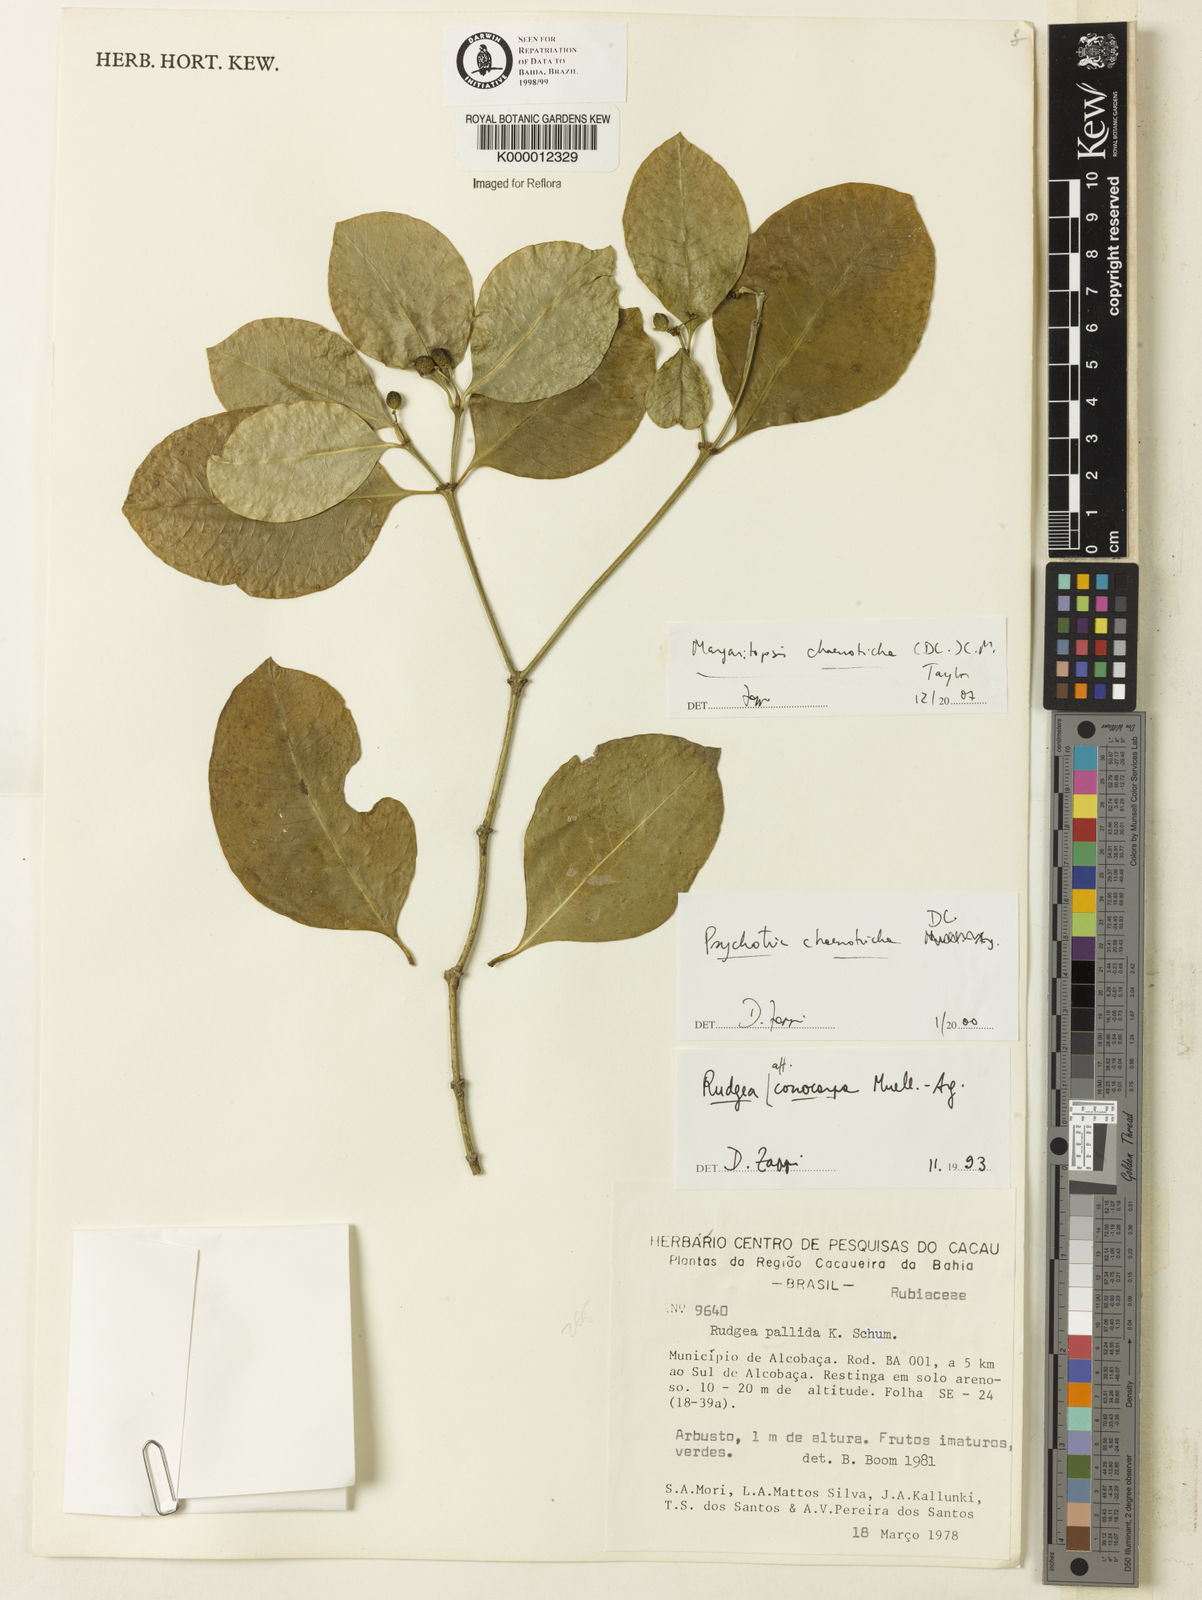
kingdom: Plantae
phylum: Tracheophyta
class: Magnoliopsida
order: Gentianales
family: Rubiaceae
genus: Eumachia
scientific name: Eumachia chaenotricha
